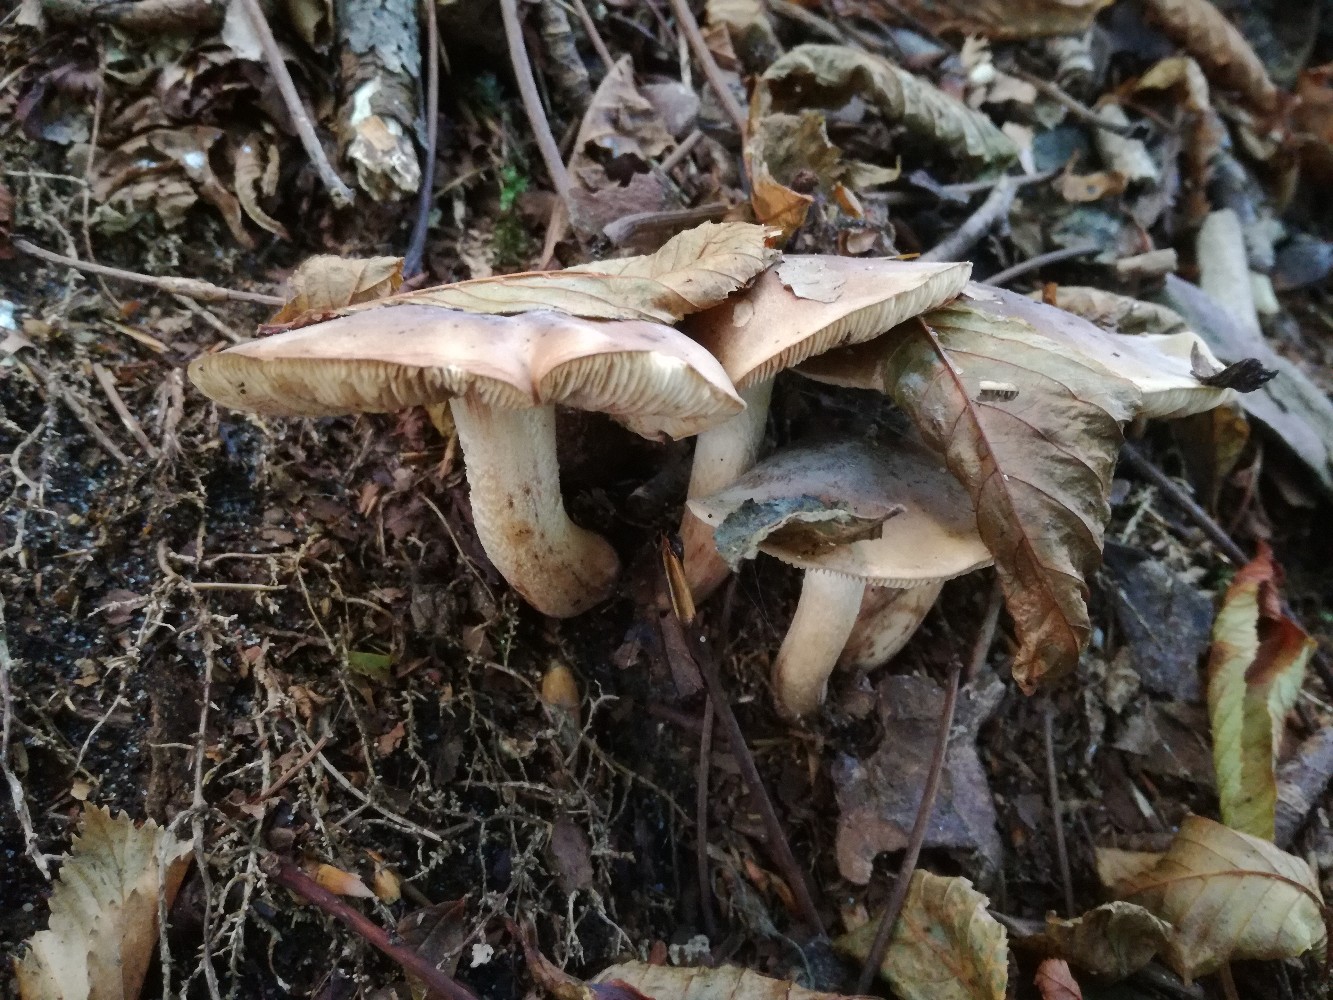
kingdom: Fungi
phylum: Basidiomycota
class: Agaricomycetes
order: Agaricales
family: Tricholomataceae
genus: Tricholoma
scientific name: Tricholoma ustale
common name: sveden ridderhat
